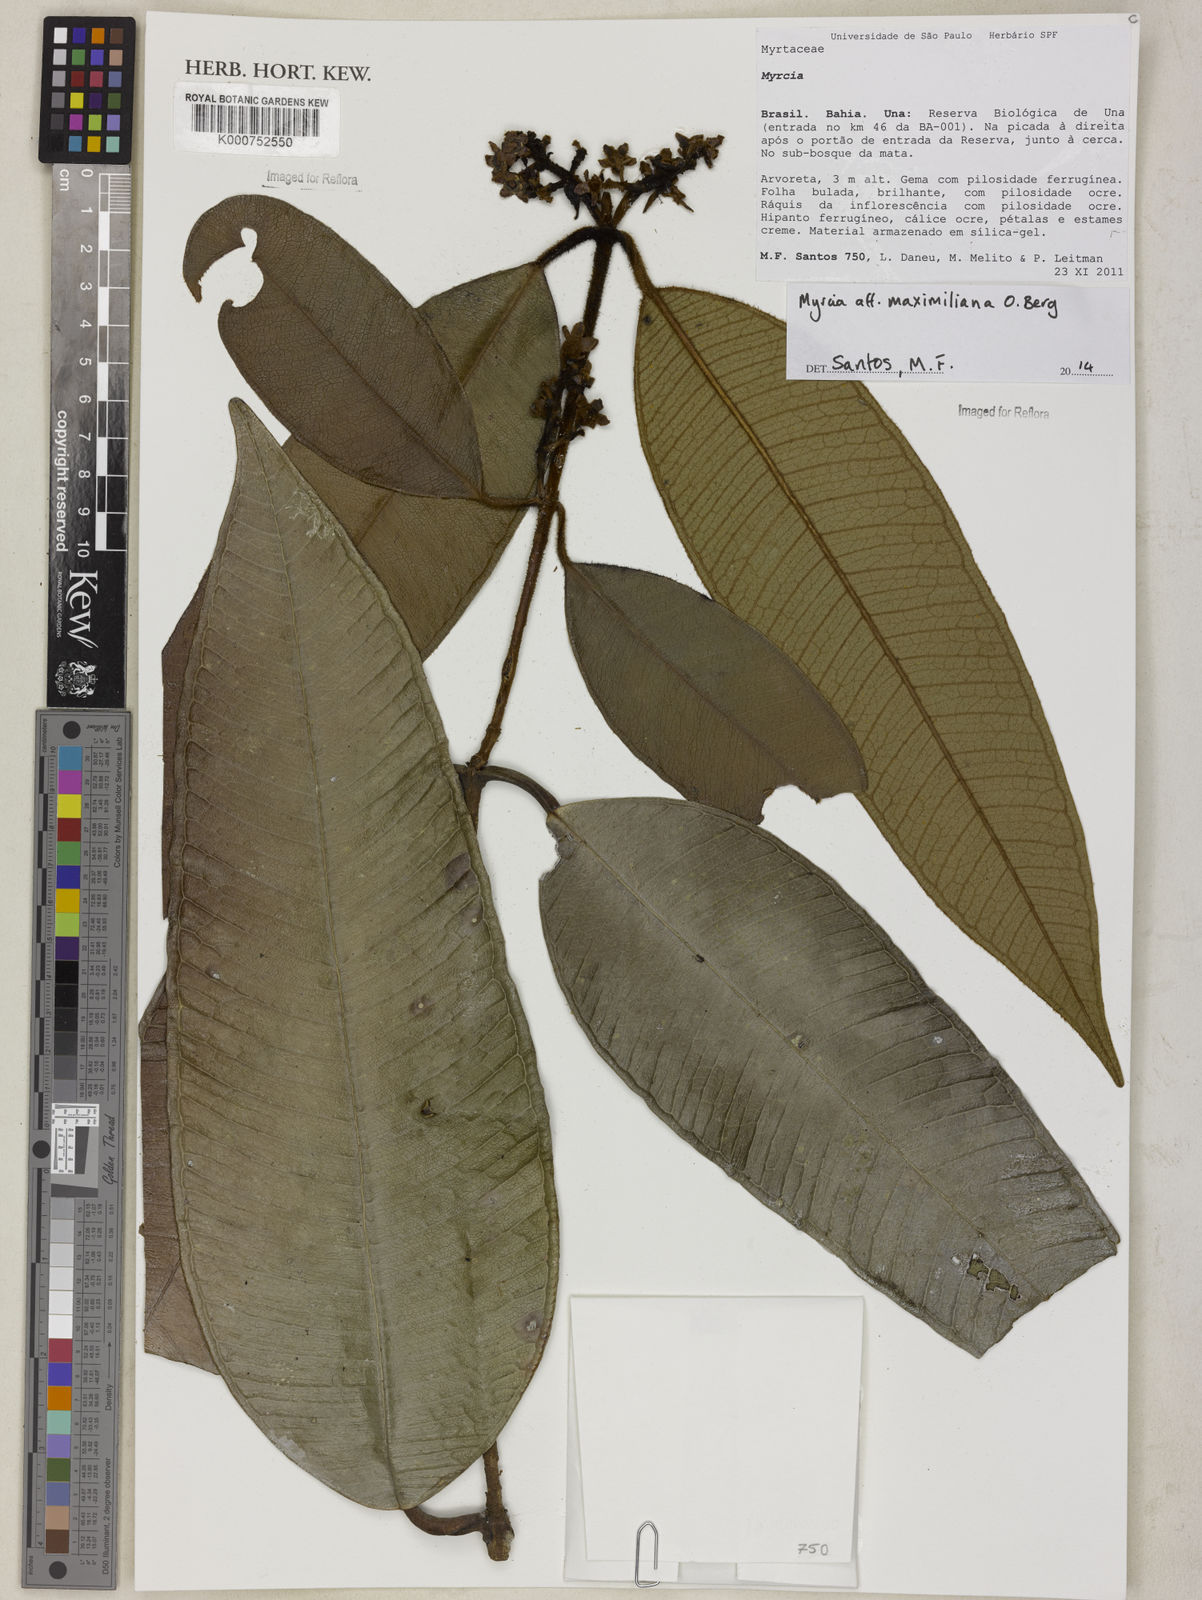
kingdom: Plantae
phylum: Tracheophyta
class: Magnoliopsida
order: Myrtales
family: Myrtaceae
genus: Myrcia
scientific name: Myrcia guarujana
